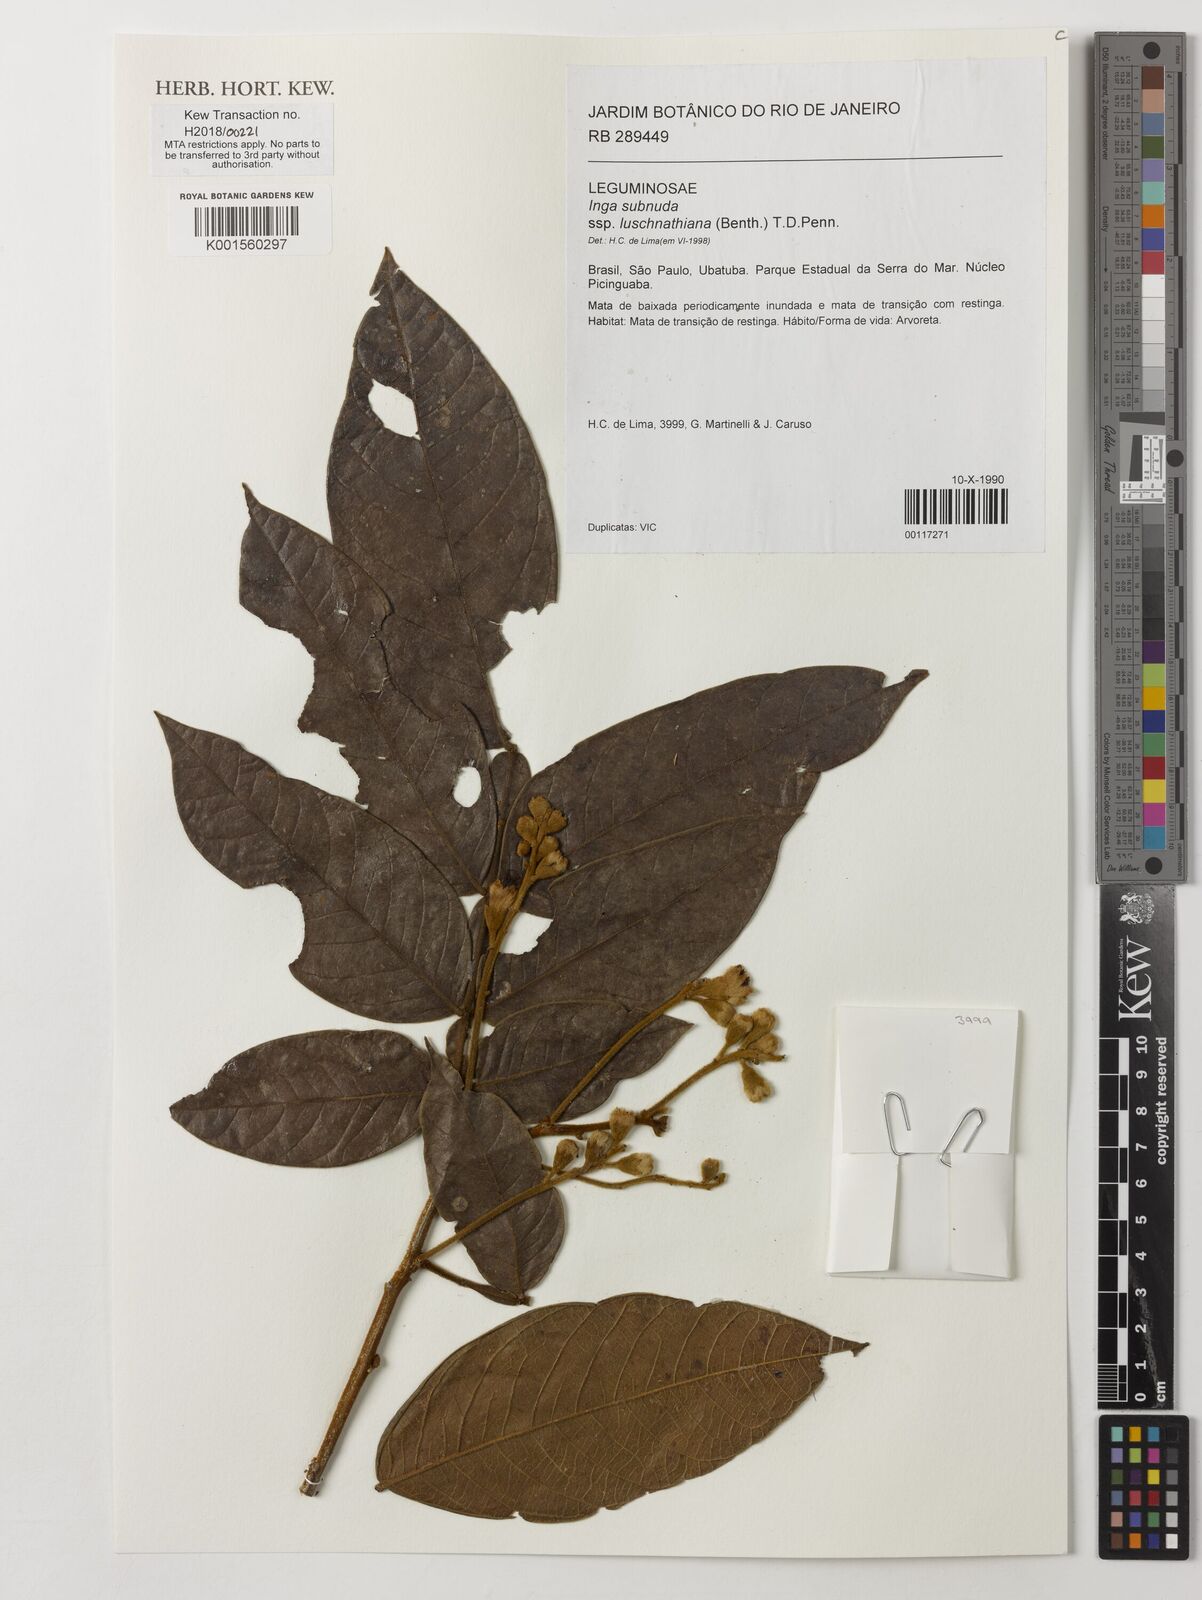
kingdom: Plantae
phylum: Tracheophyta
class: Magnoliopsida
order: Fabales
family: Fabaceae
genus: Inga
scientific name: Inga subnuda
